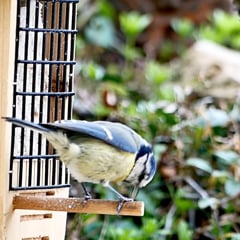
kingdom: Animalia
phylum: Chordata
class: Aves
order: Passeriformes
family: Paridae
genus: Cyanistes
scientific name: Cyanistes caeruleus
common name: Eurasian blue tit
